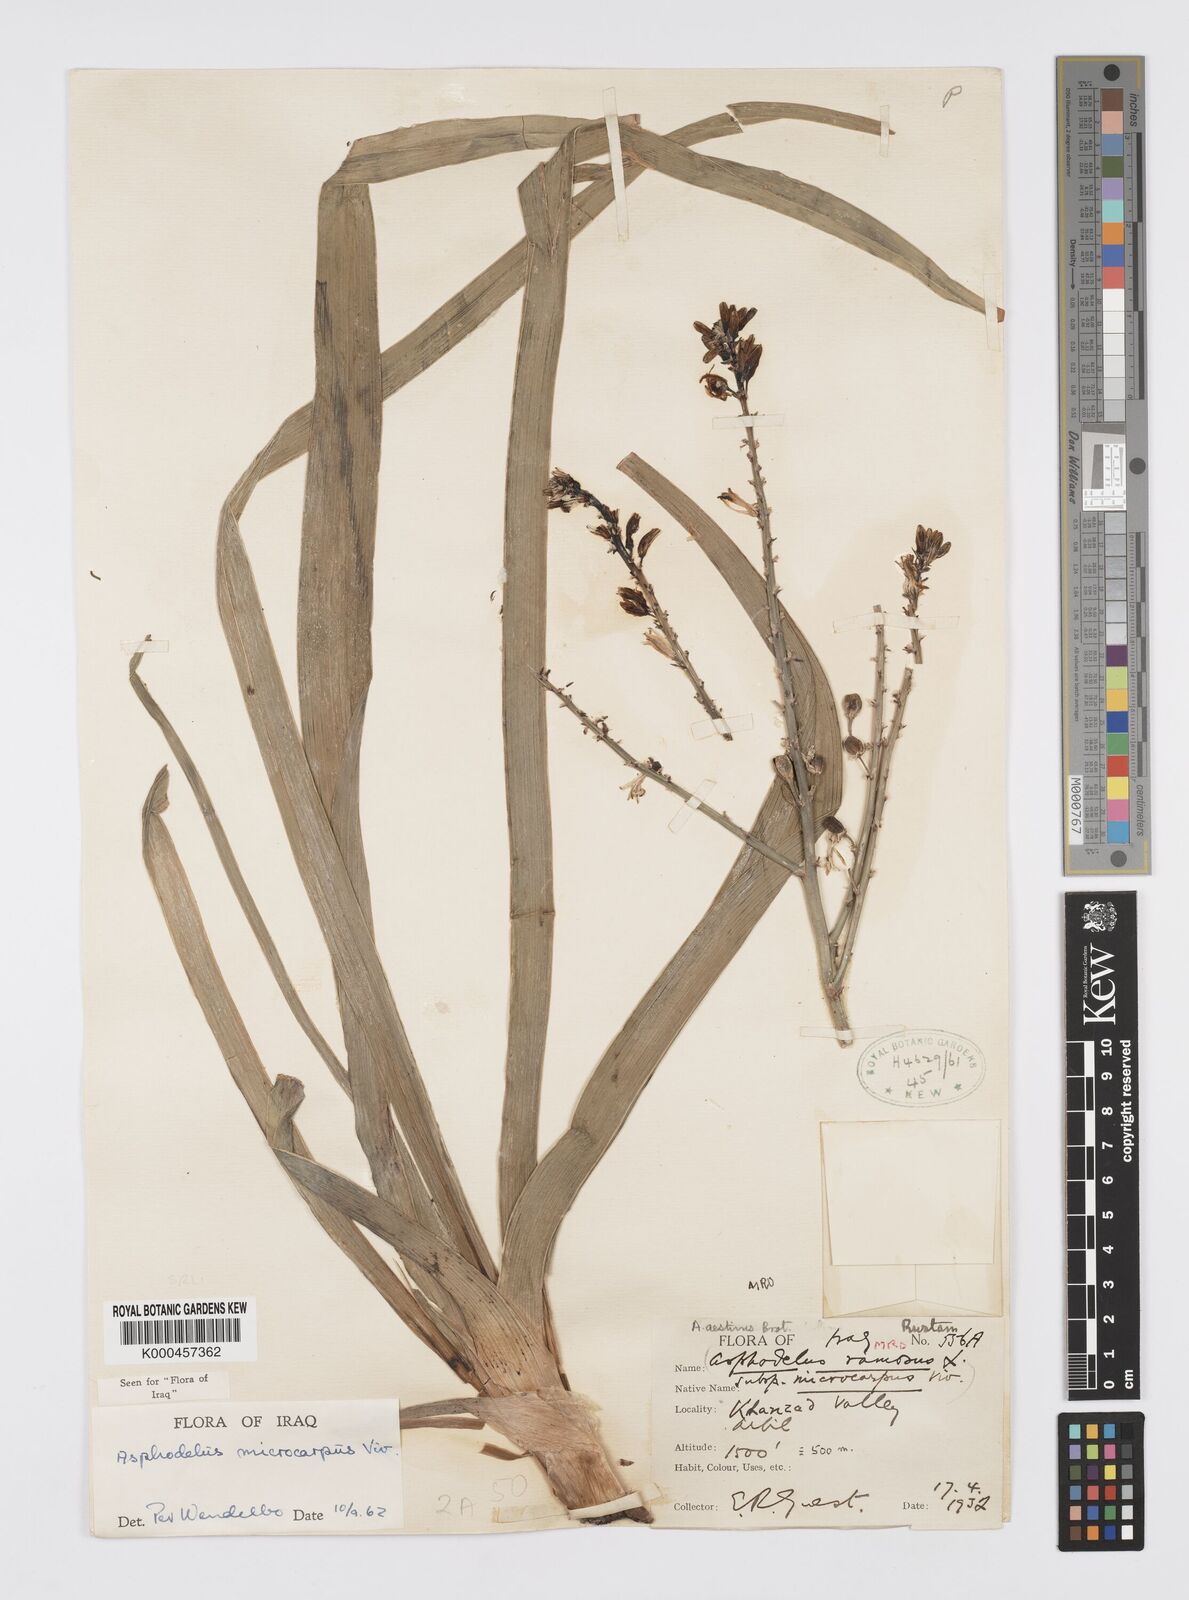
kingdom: Plantae
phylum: Tracheophyta
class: Liliopsida
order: Asparagales
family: Asphodelaceae
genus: Asphodelus
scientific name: Asphodelus aestivus
